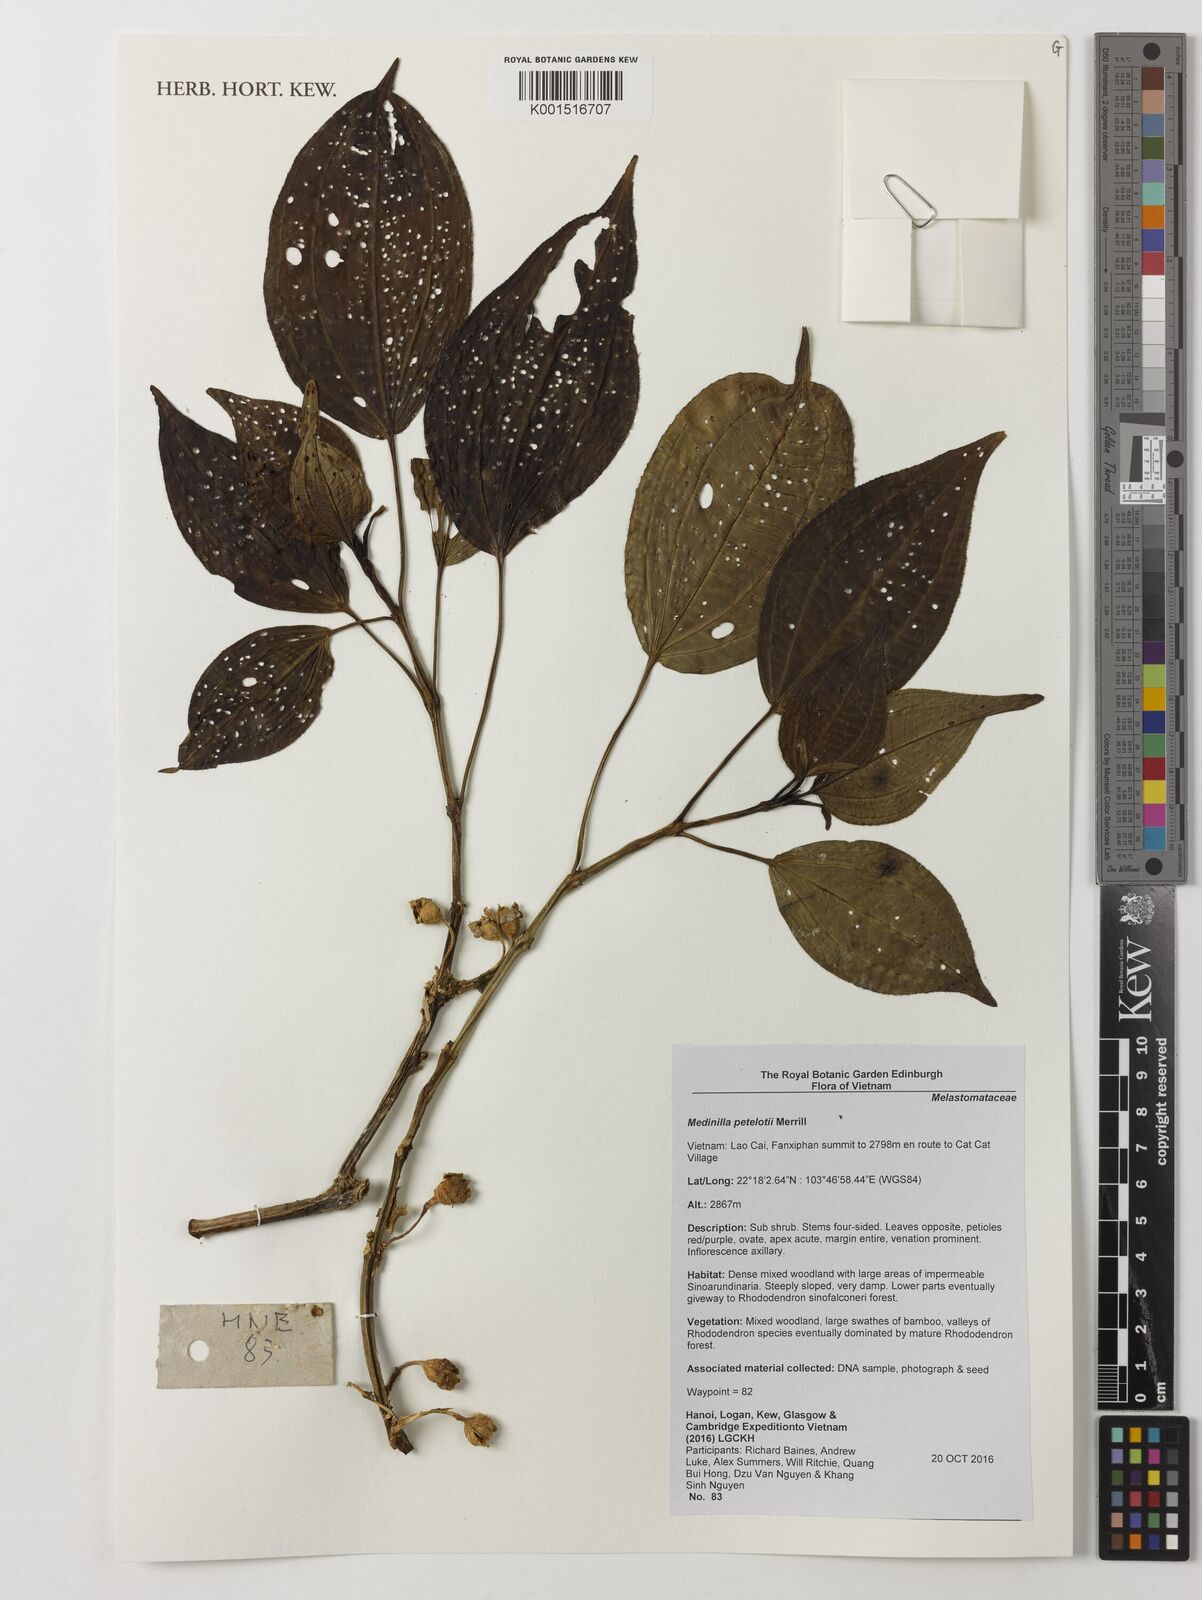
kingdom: Plantae
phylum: Tracheophyta
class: Magnoliopsida
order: Myrtales
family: Melastomataceae
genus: Medinilla
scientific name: Medinilla petelotii
